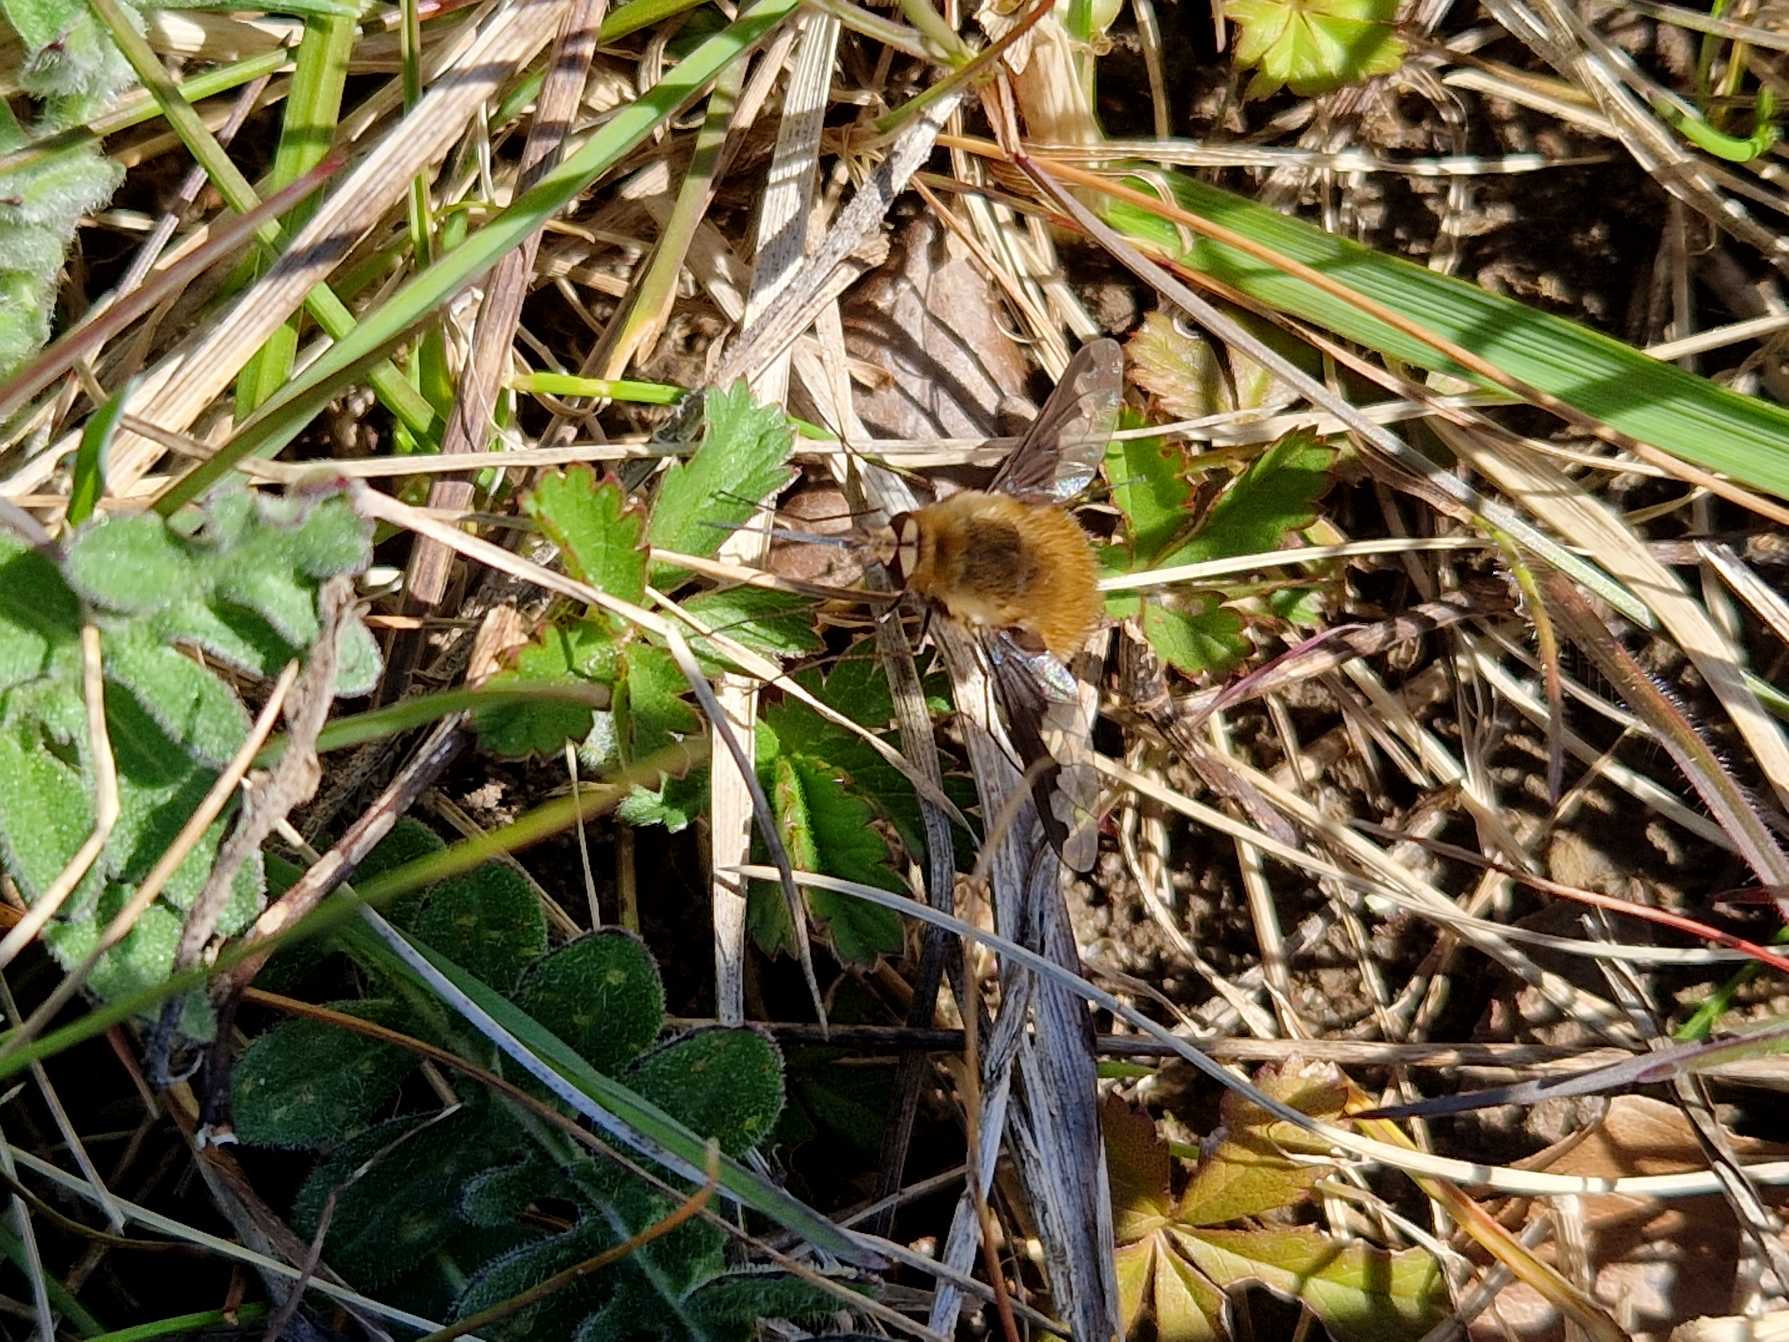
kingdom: Animalia
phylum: Arthropoda
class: Insecta
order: Diptera
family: Bombyliidae
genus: Bombylius
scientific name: Bombylius major
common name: Stor humleflue
